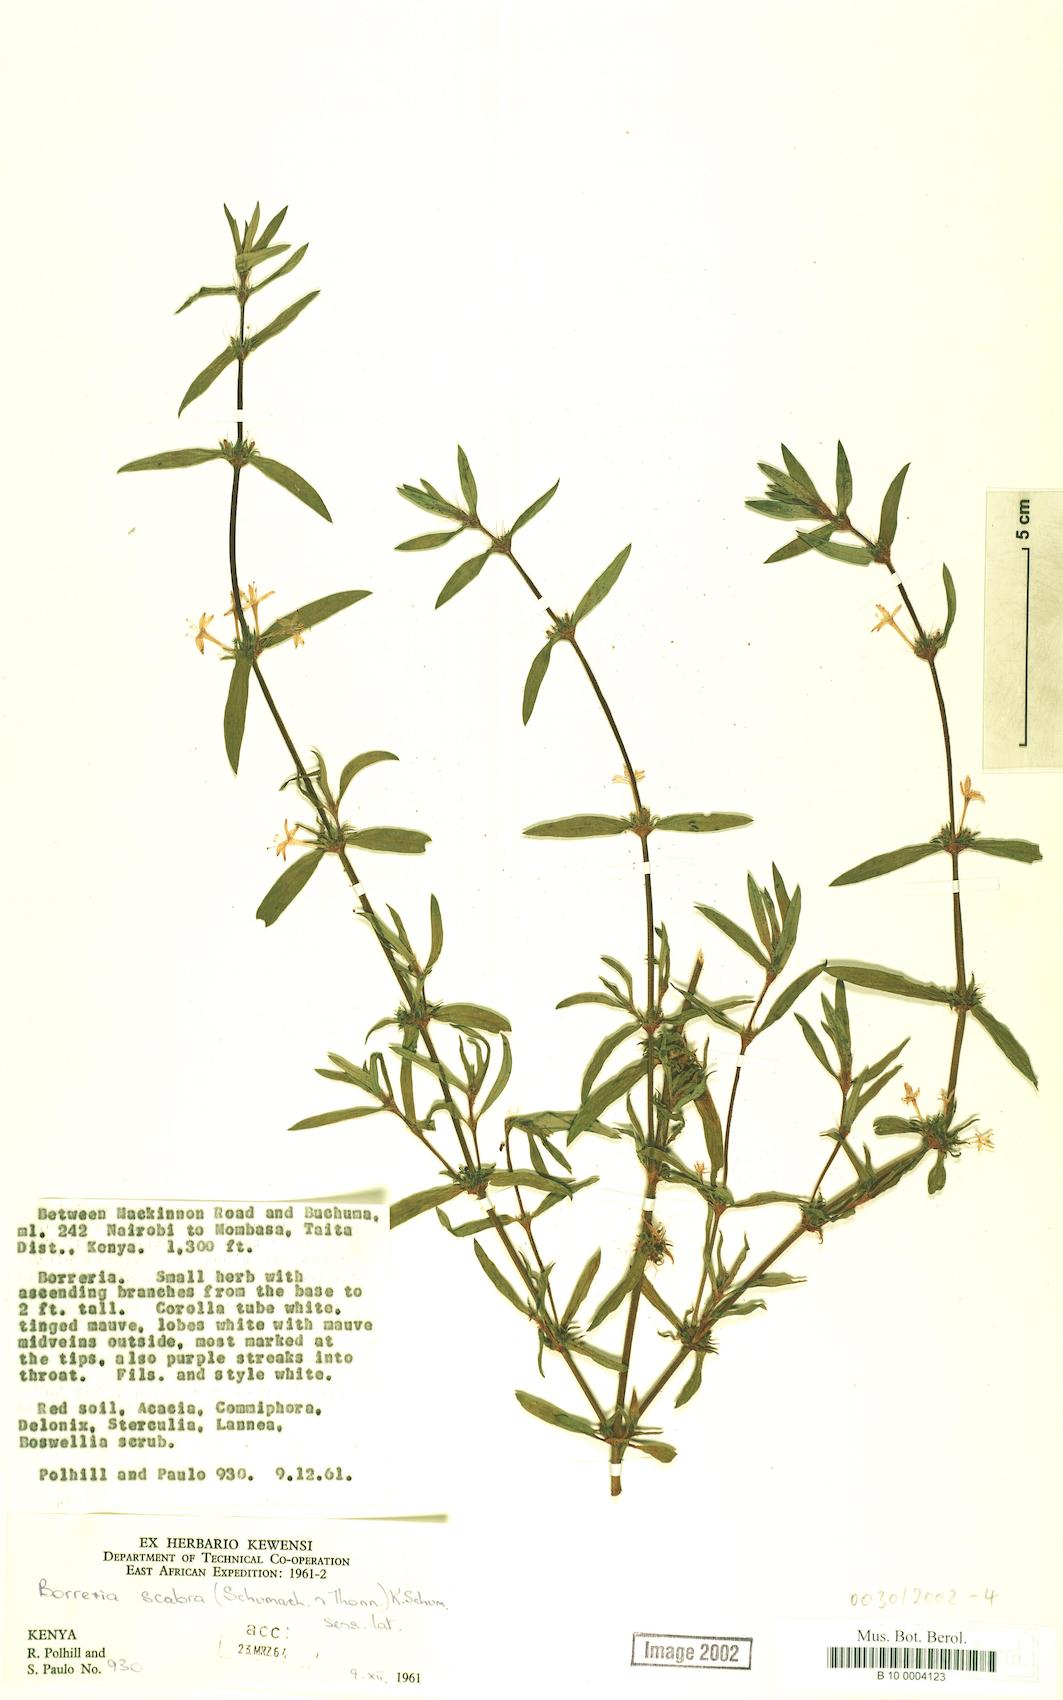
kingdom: Plantae
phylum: Tracheophyta
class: Magnoliopsida
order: Gentianales
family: Rubiaceae
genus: Spermacoce
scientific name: Spermacoce ruelliae
